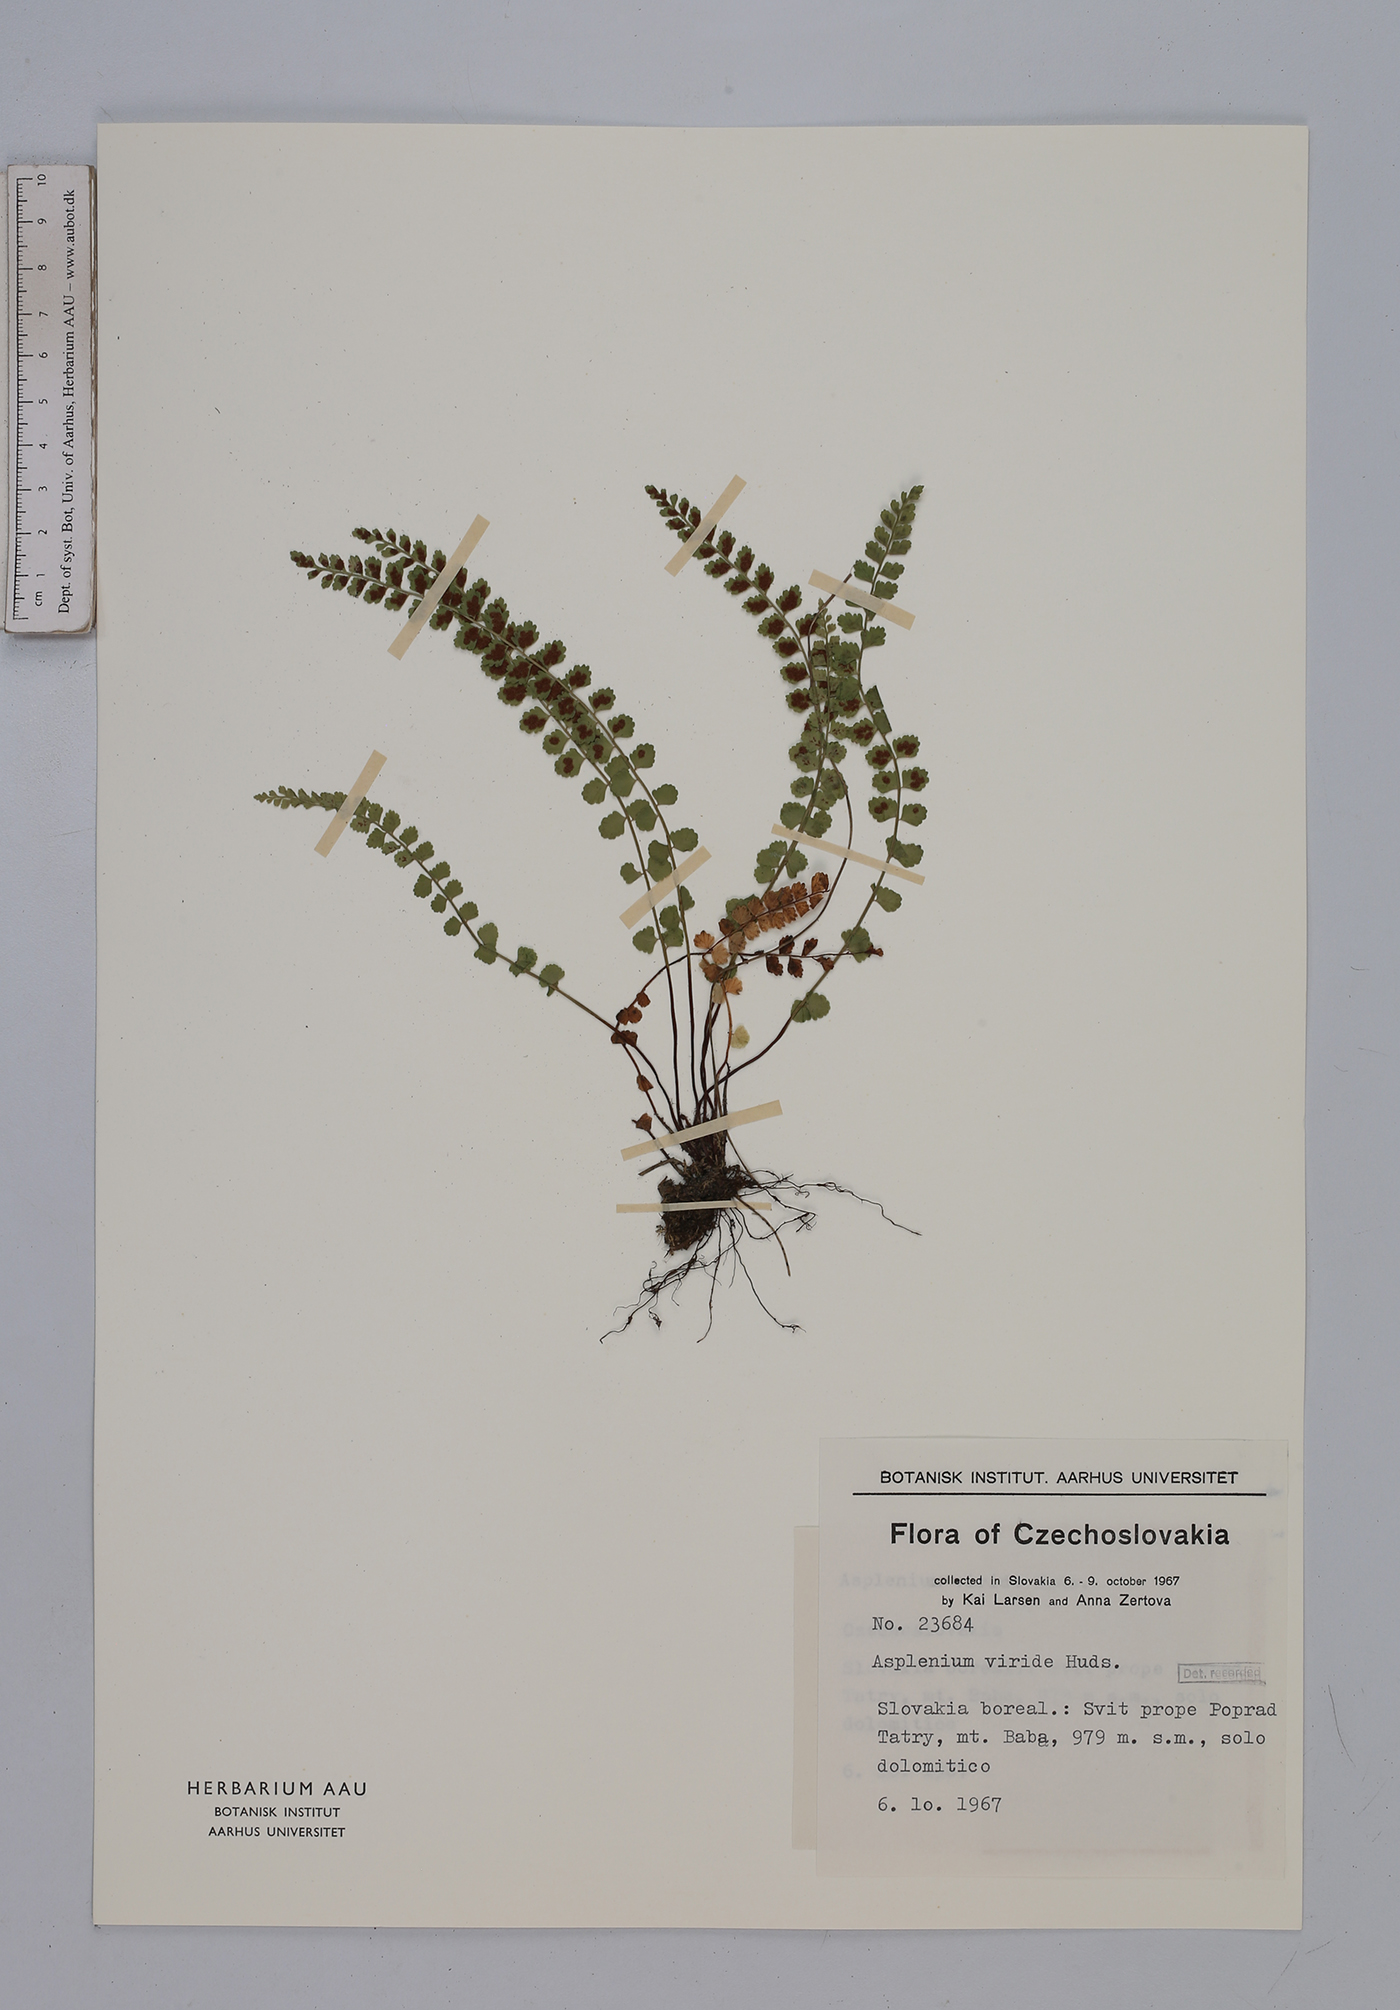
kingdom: Plantae
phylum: Tracheophyta
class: Polypodiopsida
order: Polypodiales
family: Aspleniaceae
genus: Asplenium
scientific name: Asplenium viride
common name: Green spleenwort
